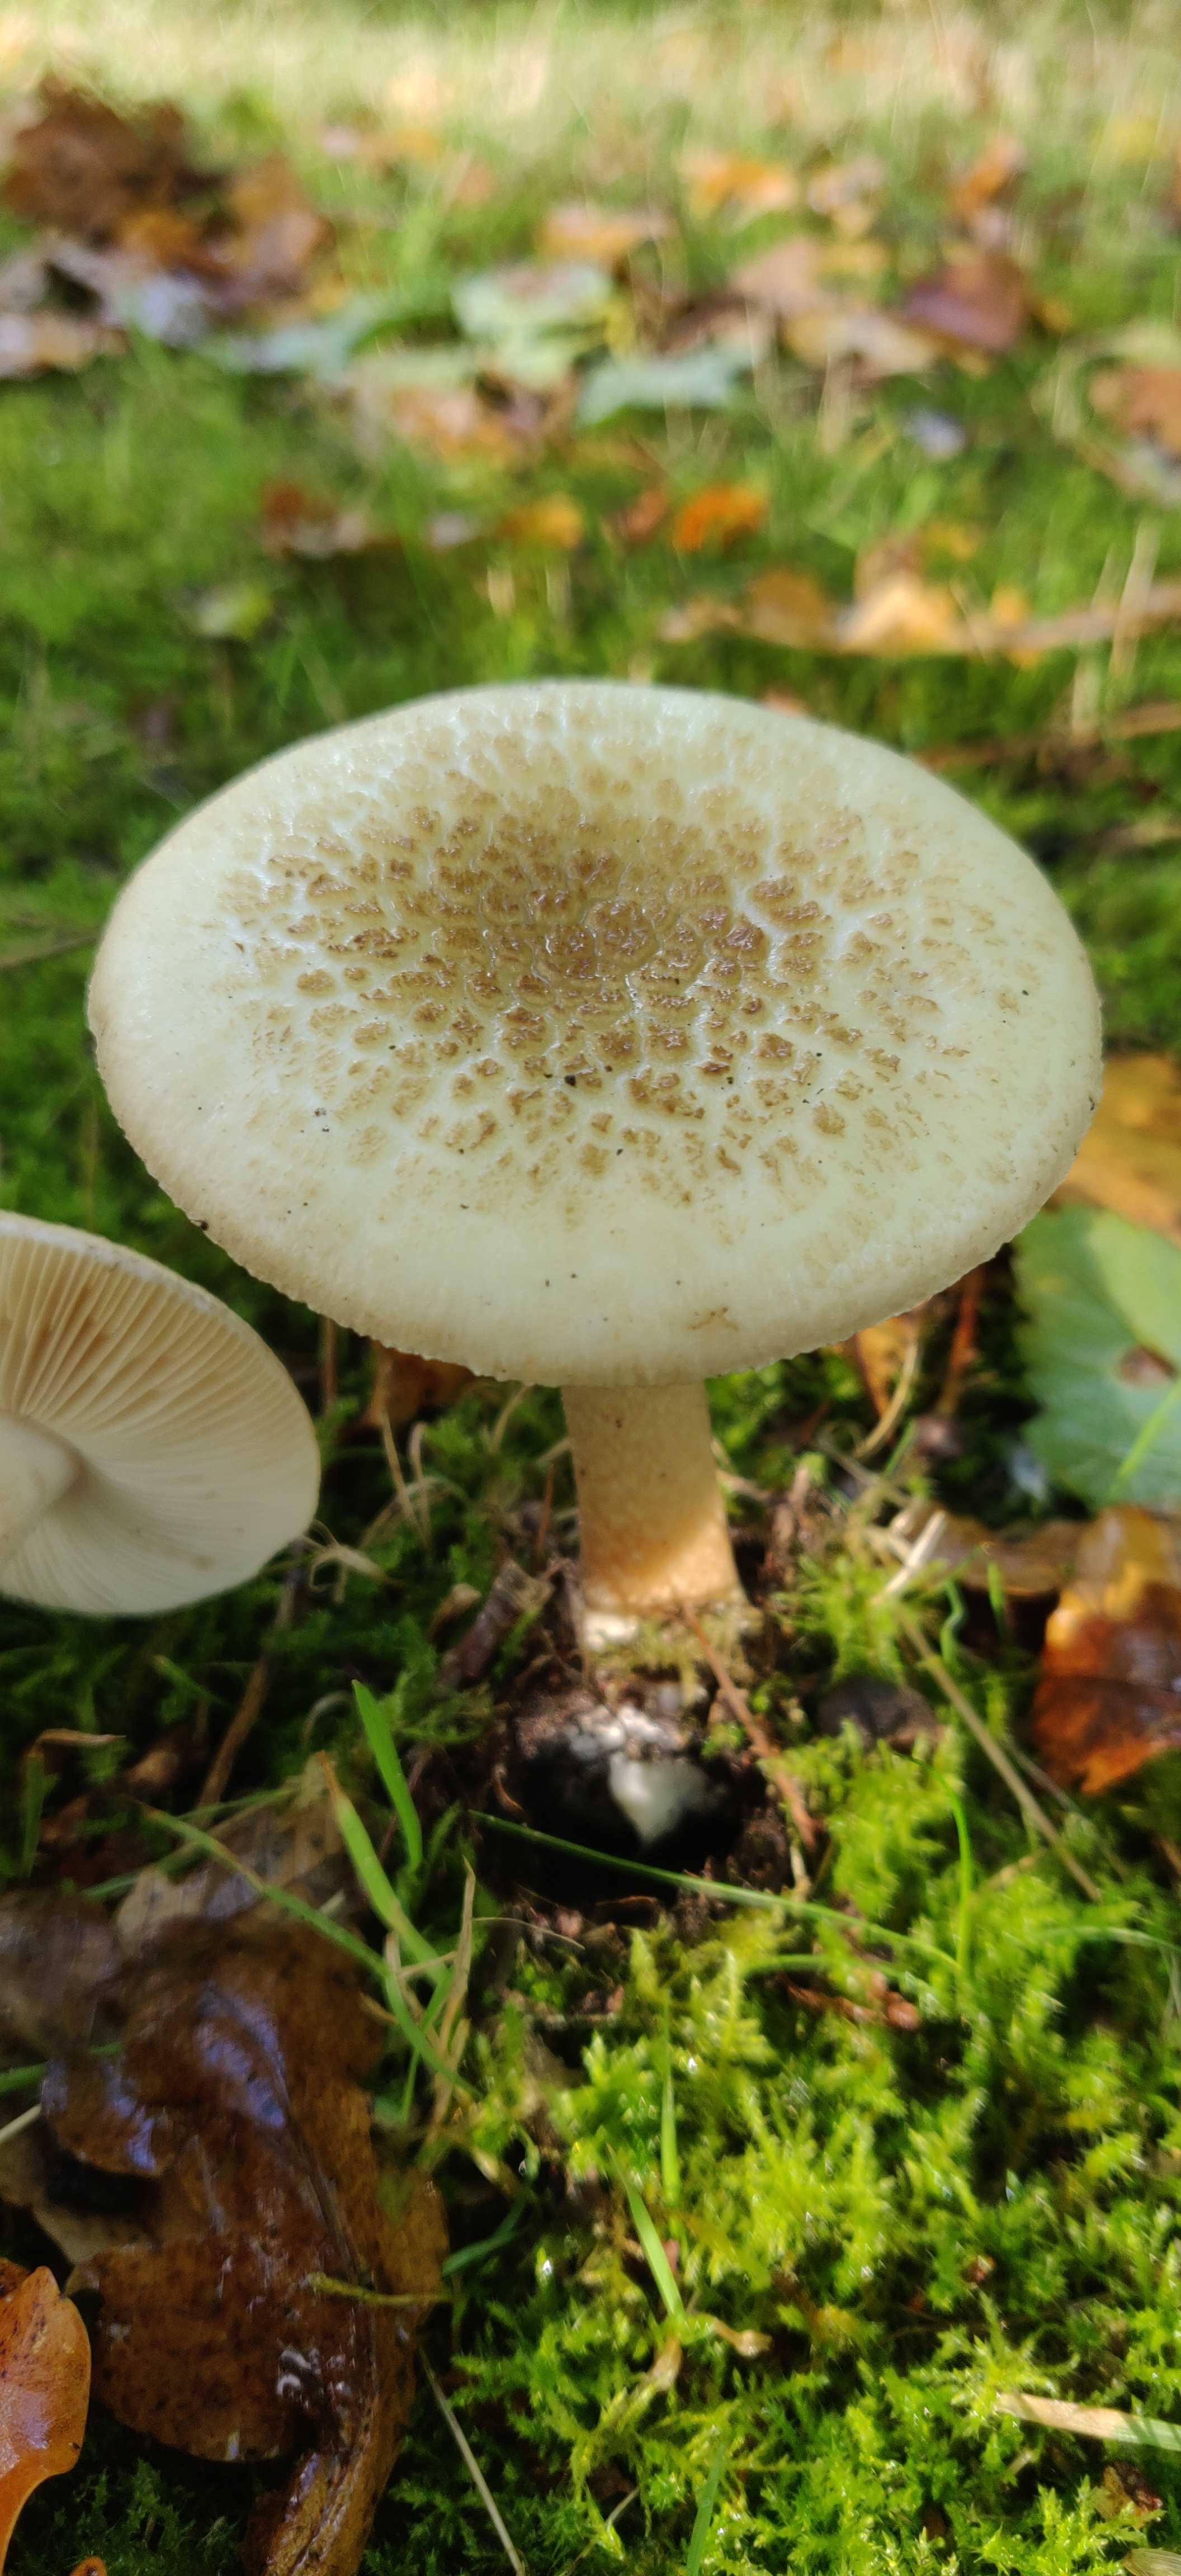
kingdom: Fungi
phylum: Basidiomycota
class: Agaricomycetes
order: Agaricales
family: Amanitaceae
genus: Amanita
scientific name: Amanita citrina
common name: kugleknoldet fluesvamp
